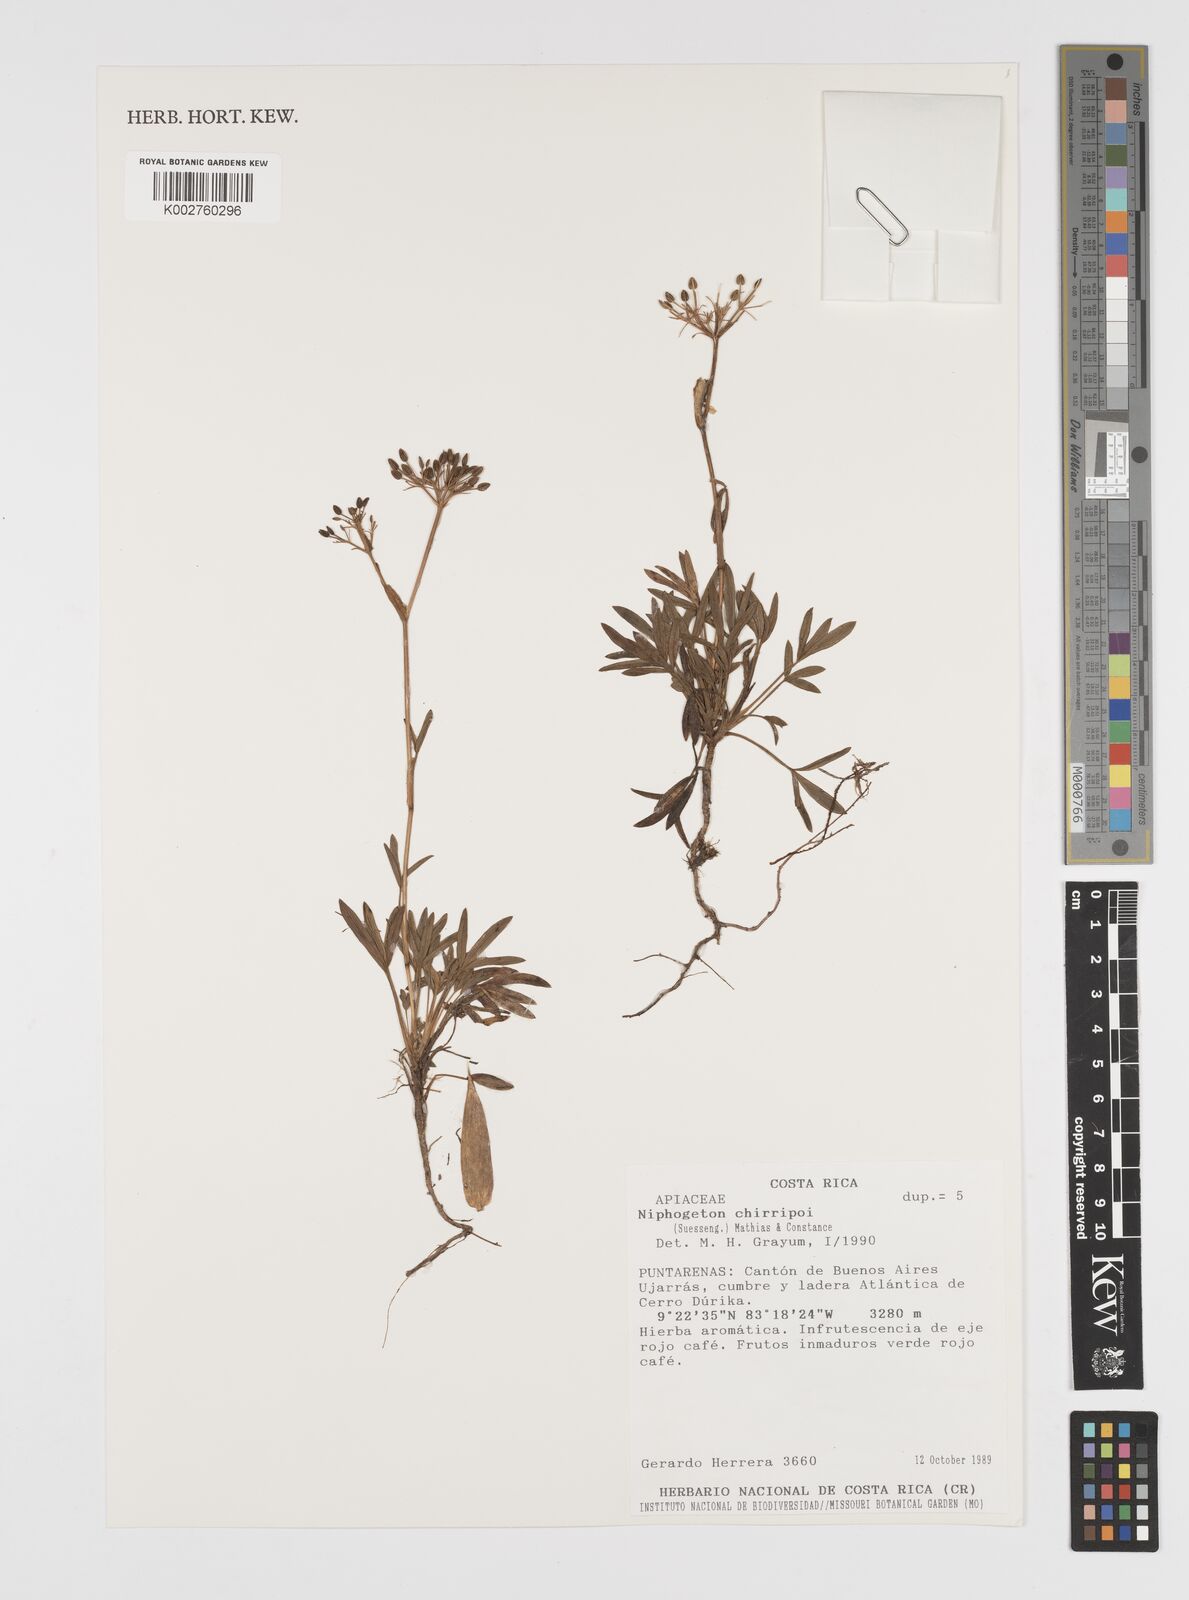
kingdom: Plantae
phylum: Tracheophyta
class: Magnoliopsida
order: Apiales
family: Apiaceae
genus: Niphogeton
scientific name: Niphogeton chirripoi
